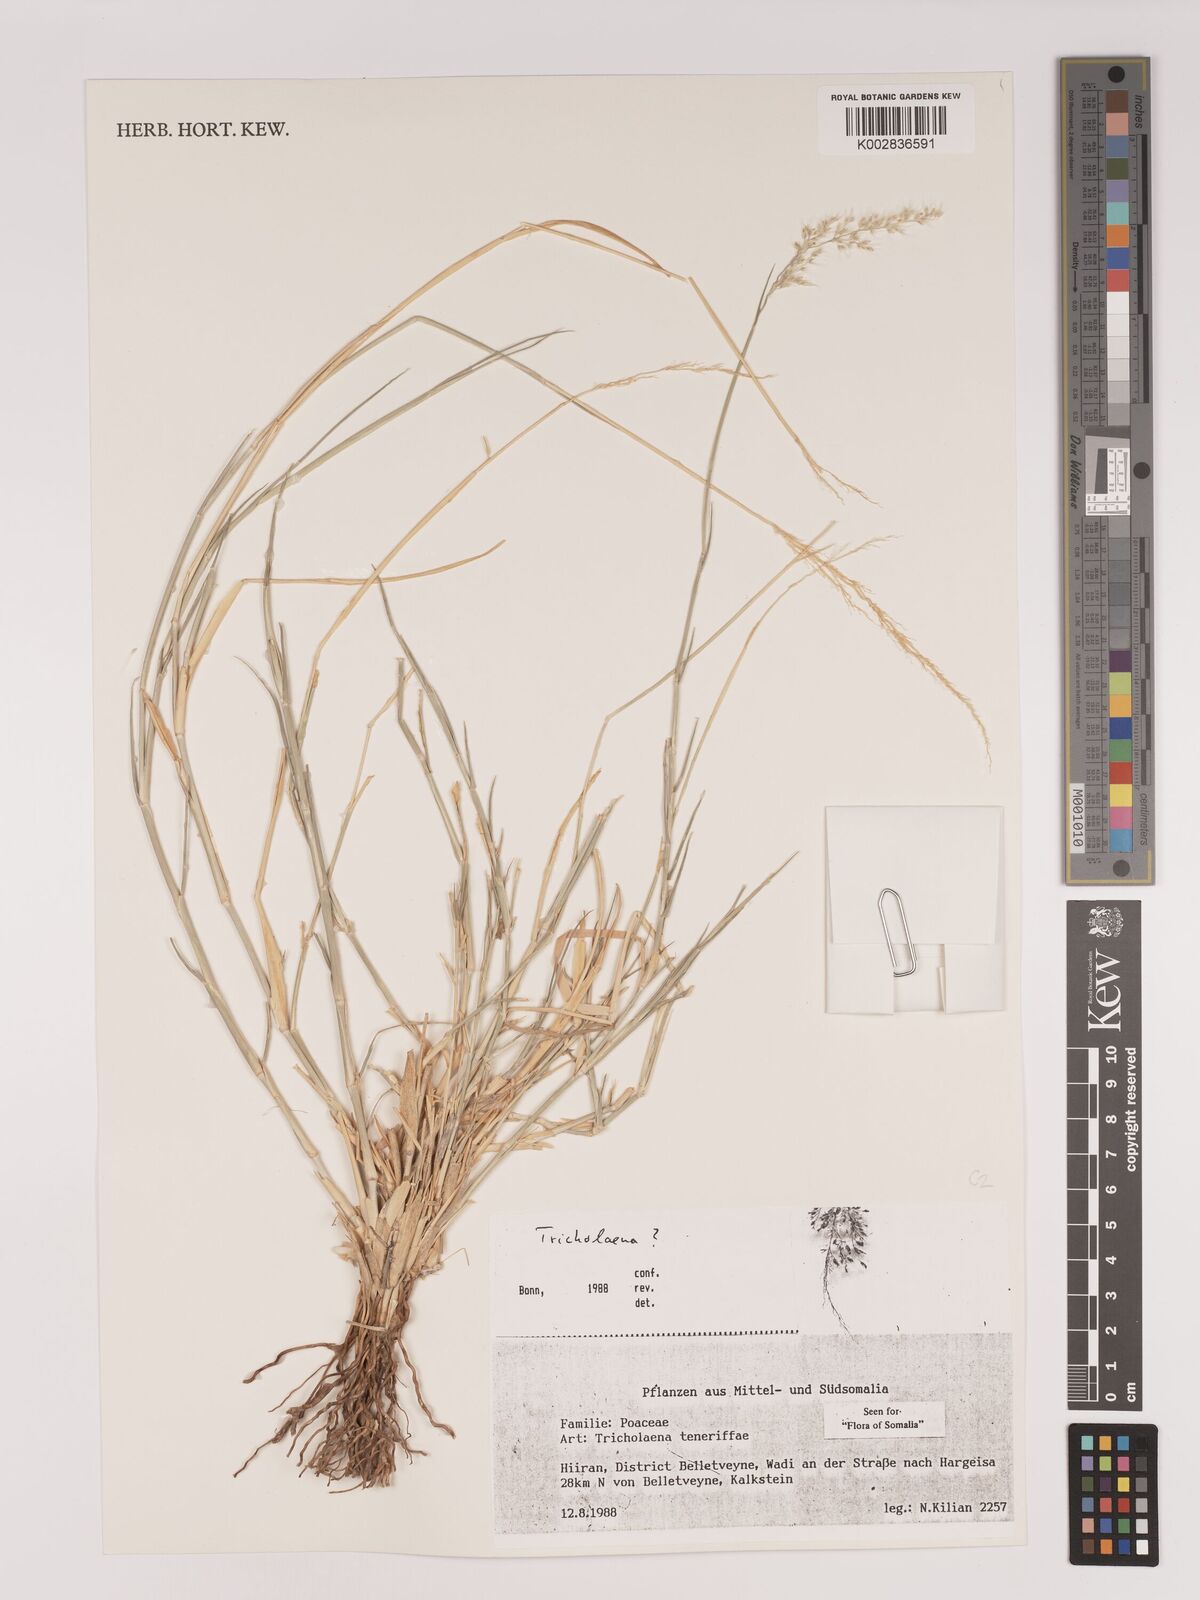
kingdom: Plantae
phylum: Tracheophyta
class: Liliopsida
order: Poales
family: Poaceae
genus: Tricholaena
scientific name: Tricholaena teneriffae
